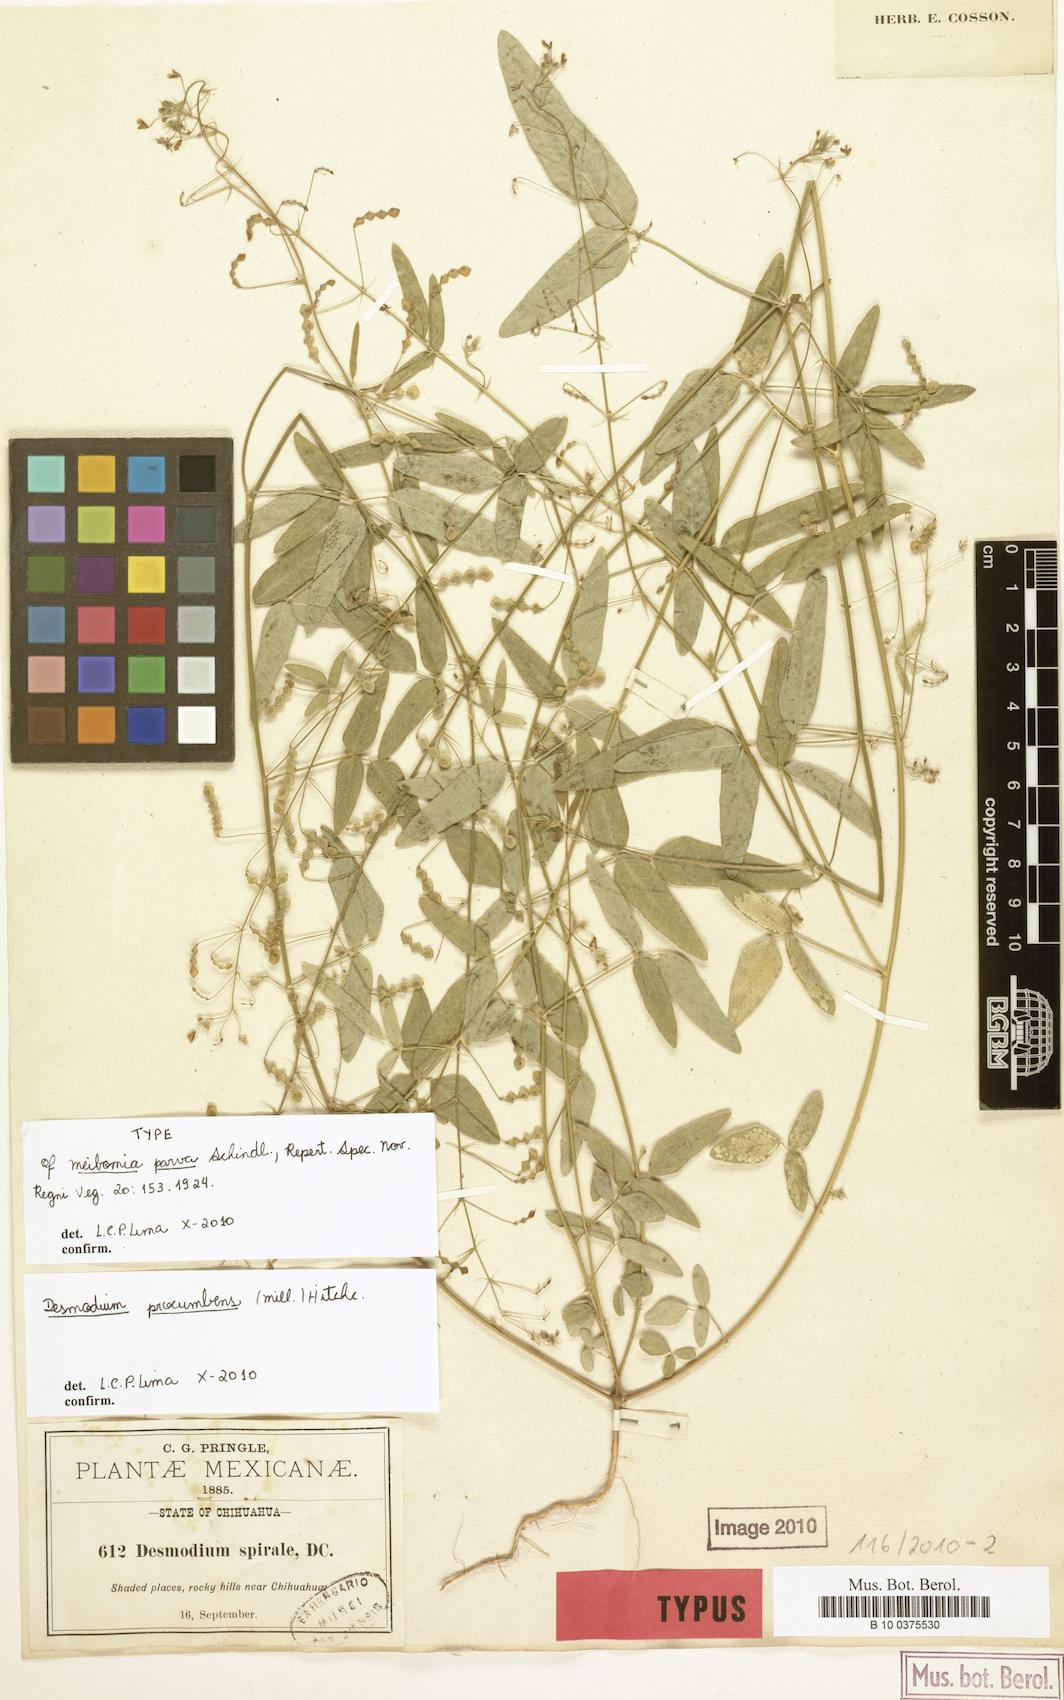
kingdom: Plantae
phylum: Tracheophyta
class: Magnoliopsida
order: Fabales
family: Fabaceae
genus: Desmodium
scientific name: Desmodium procumbens
